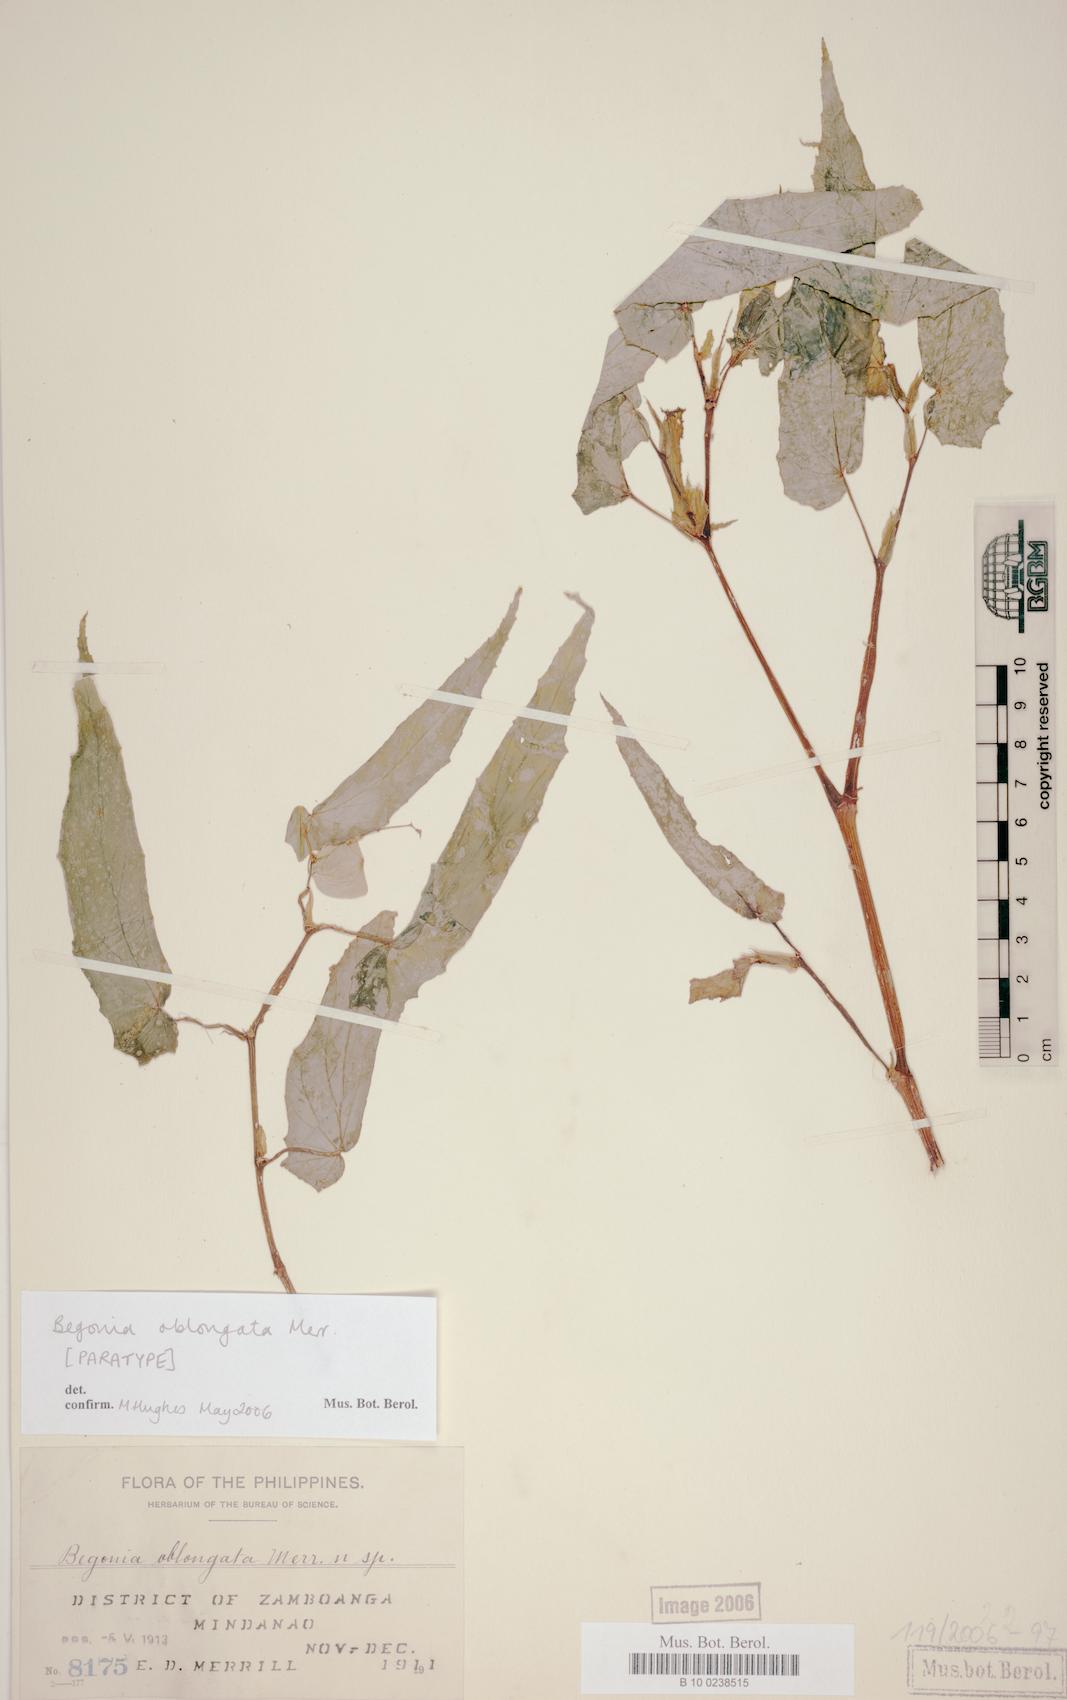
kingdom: Plantae
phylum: Tracheophyta
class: Magnoliopsida
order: Cucurbitales
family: Begoniaceae
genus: Begonia
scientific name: Begonia oblongata
